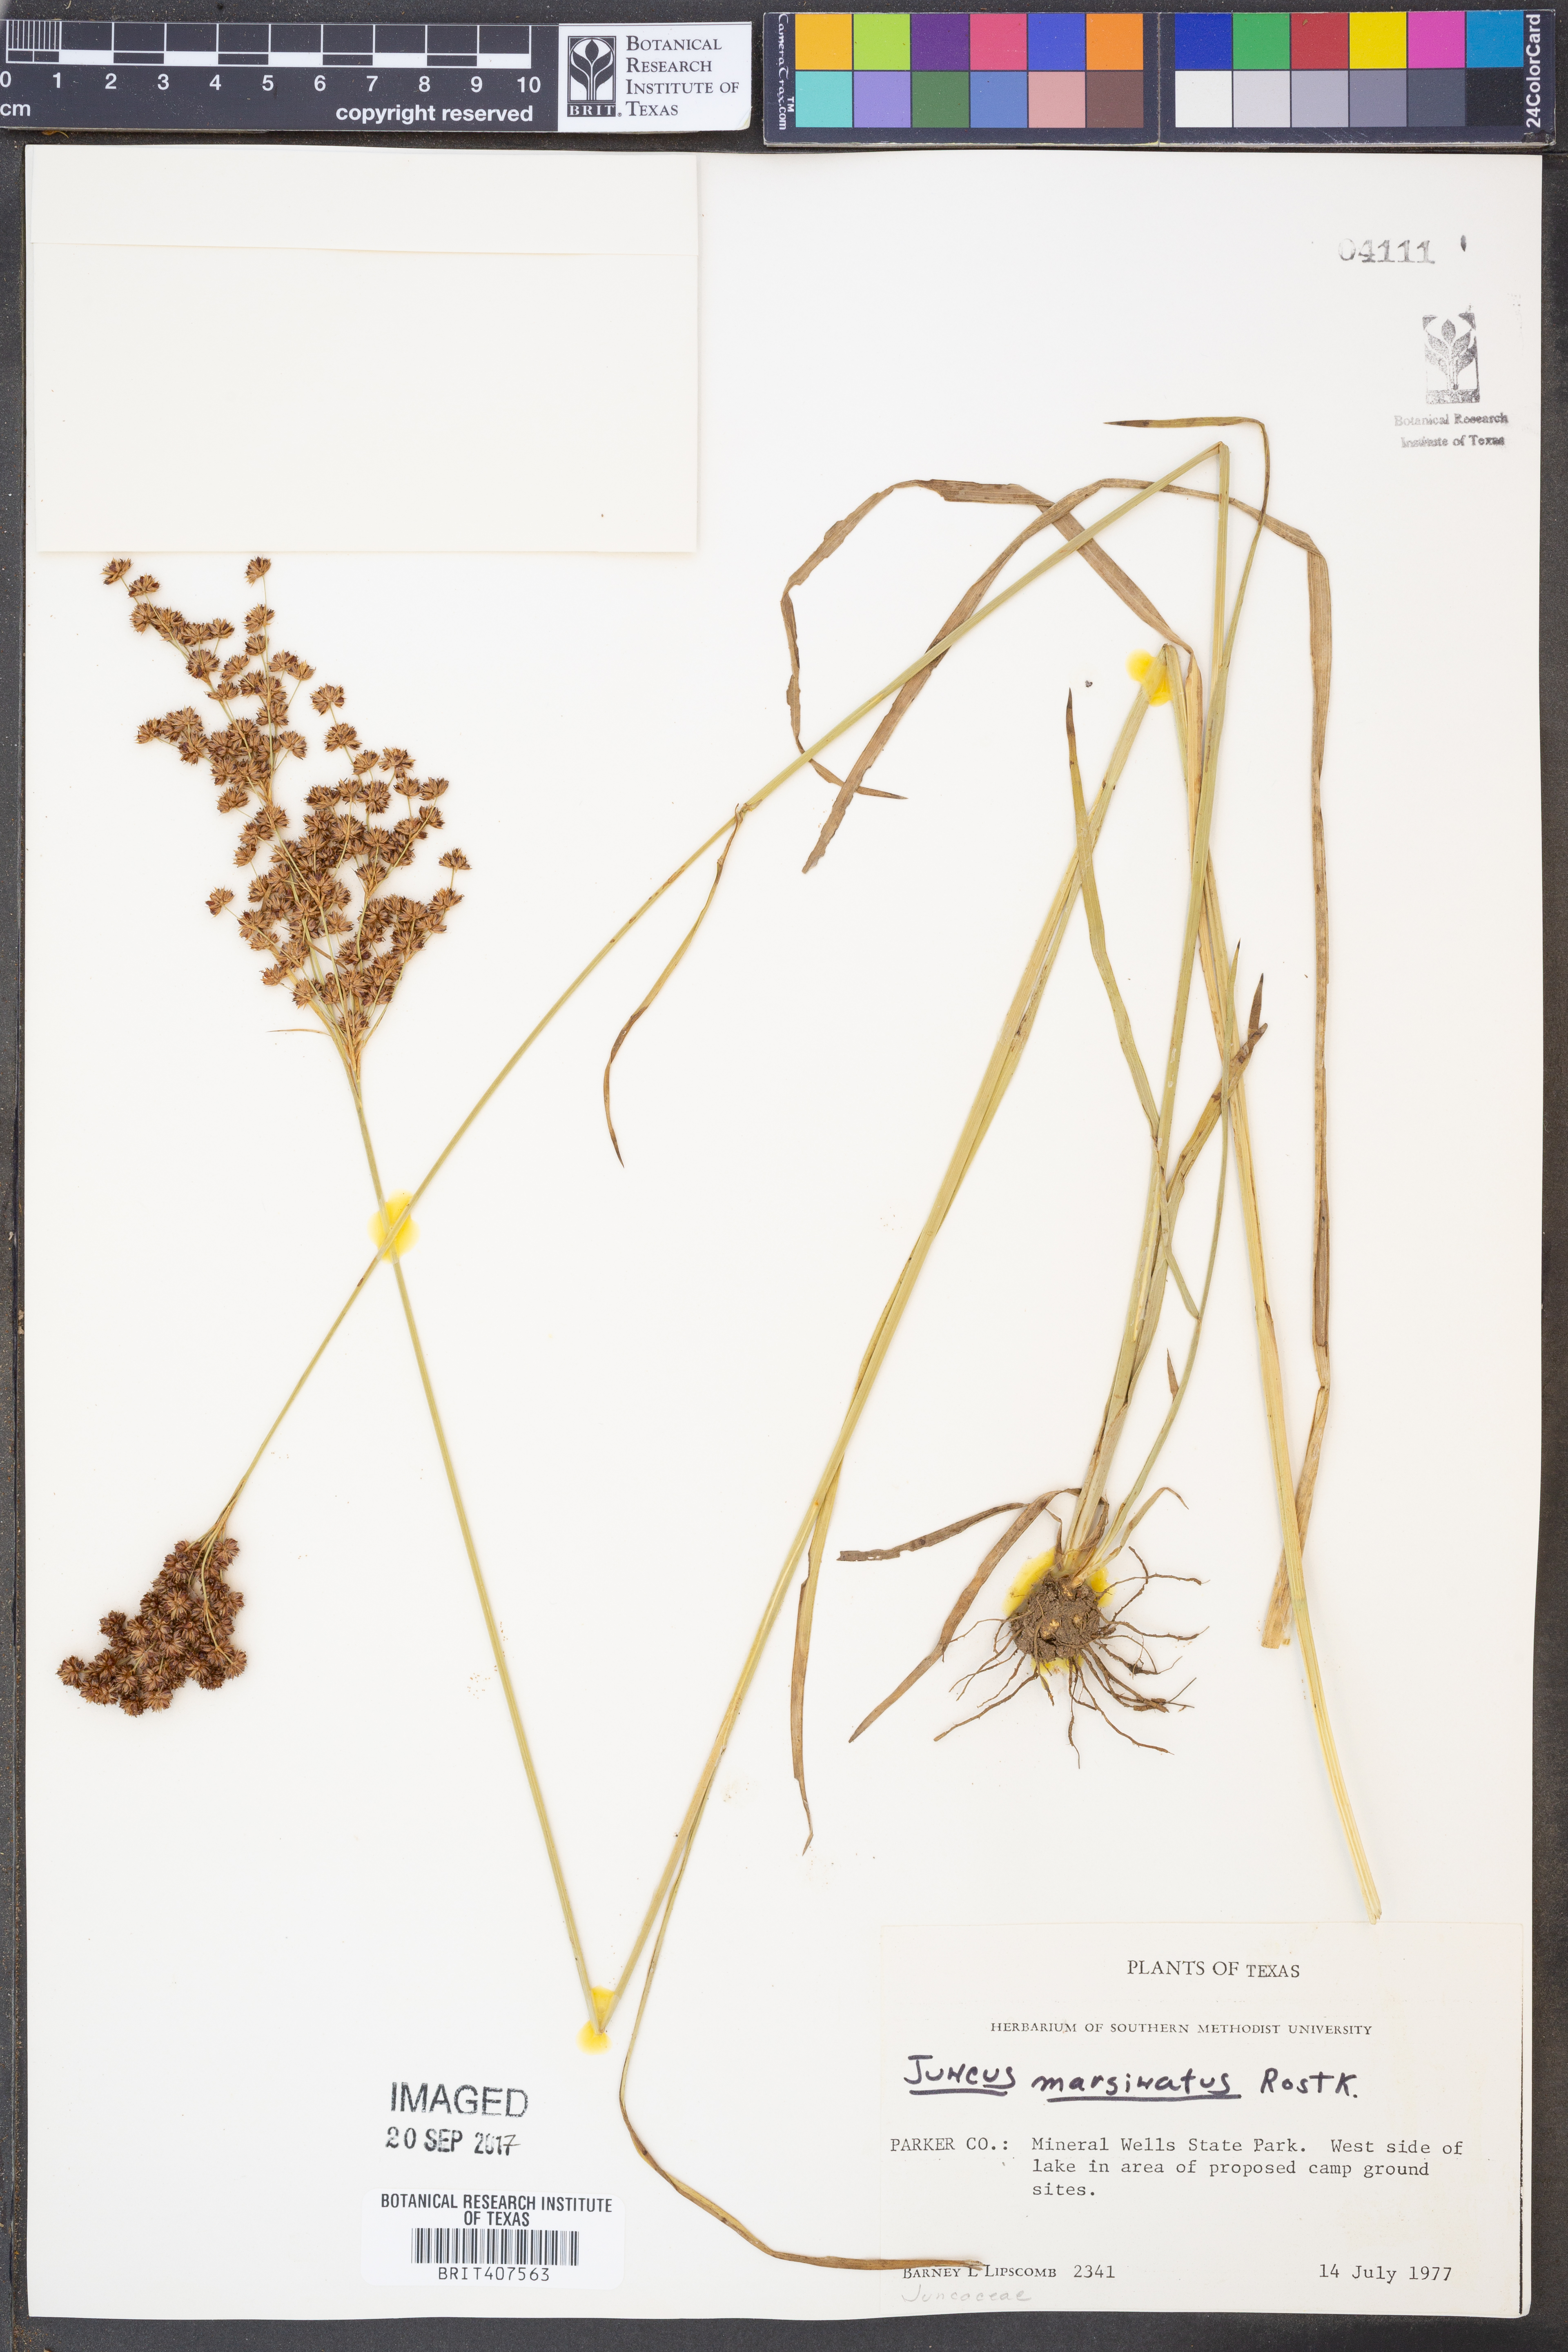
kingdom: Plantae
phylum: Tracheophyta
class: Liliopsida
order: Poales
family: Juncaceae
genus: Juncus
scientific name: Juncus marginatus
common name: Grass-leaf rush
